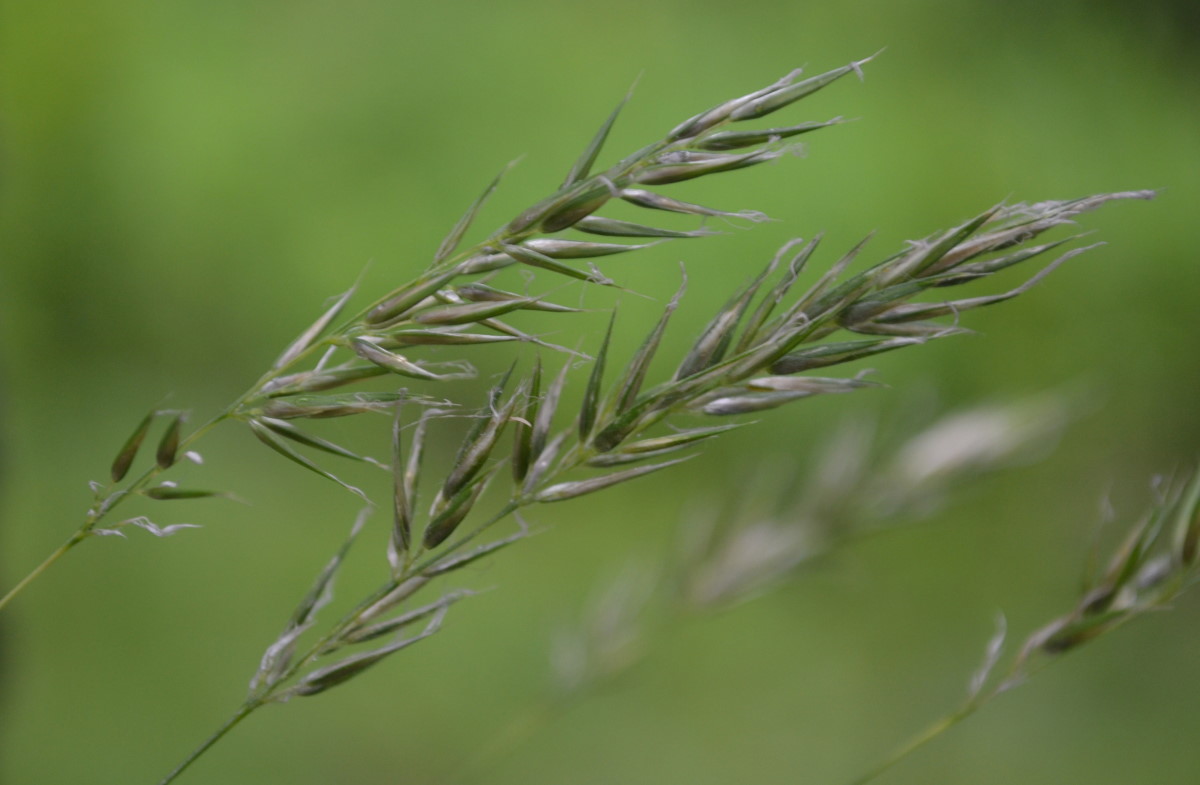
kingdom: Plantae
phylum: Tracheophyta
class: Liliopsida
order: Poales
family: Poaceae
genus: Anthoxanthum
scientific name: Anthoxanthum odoratum
